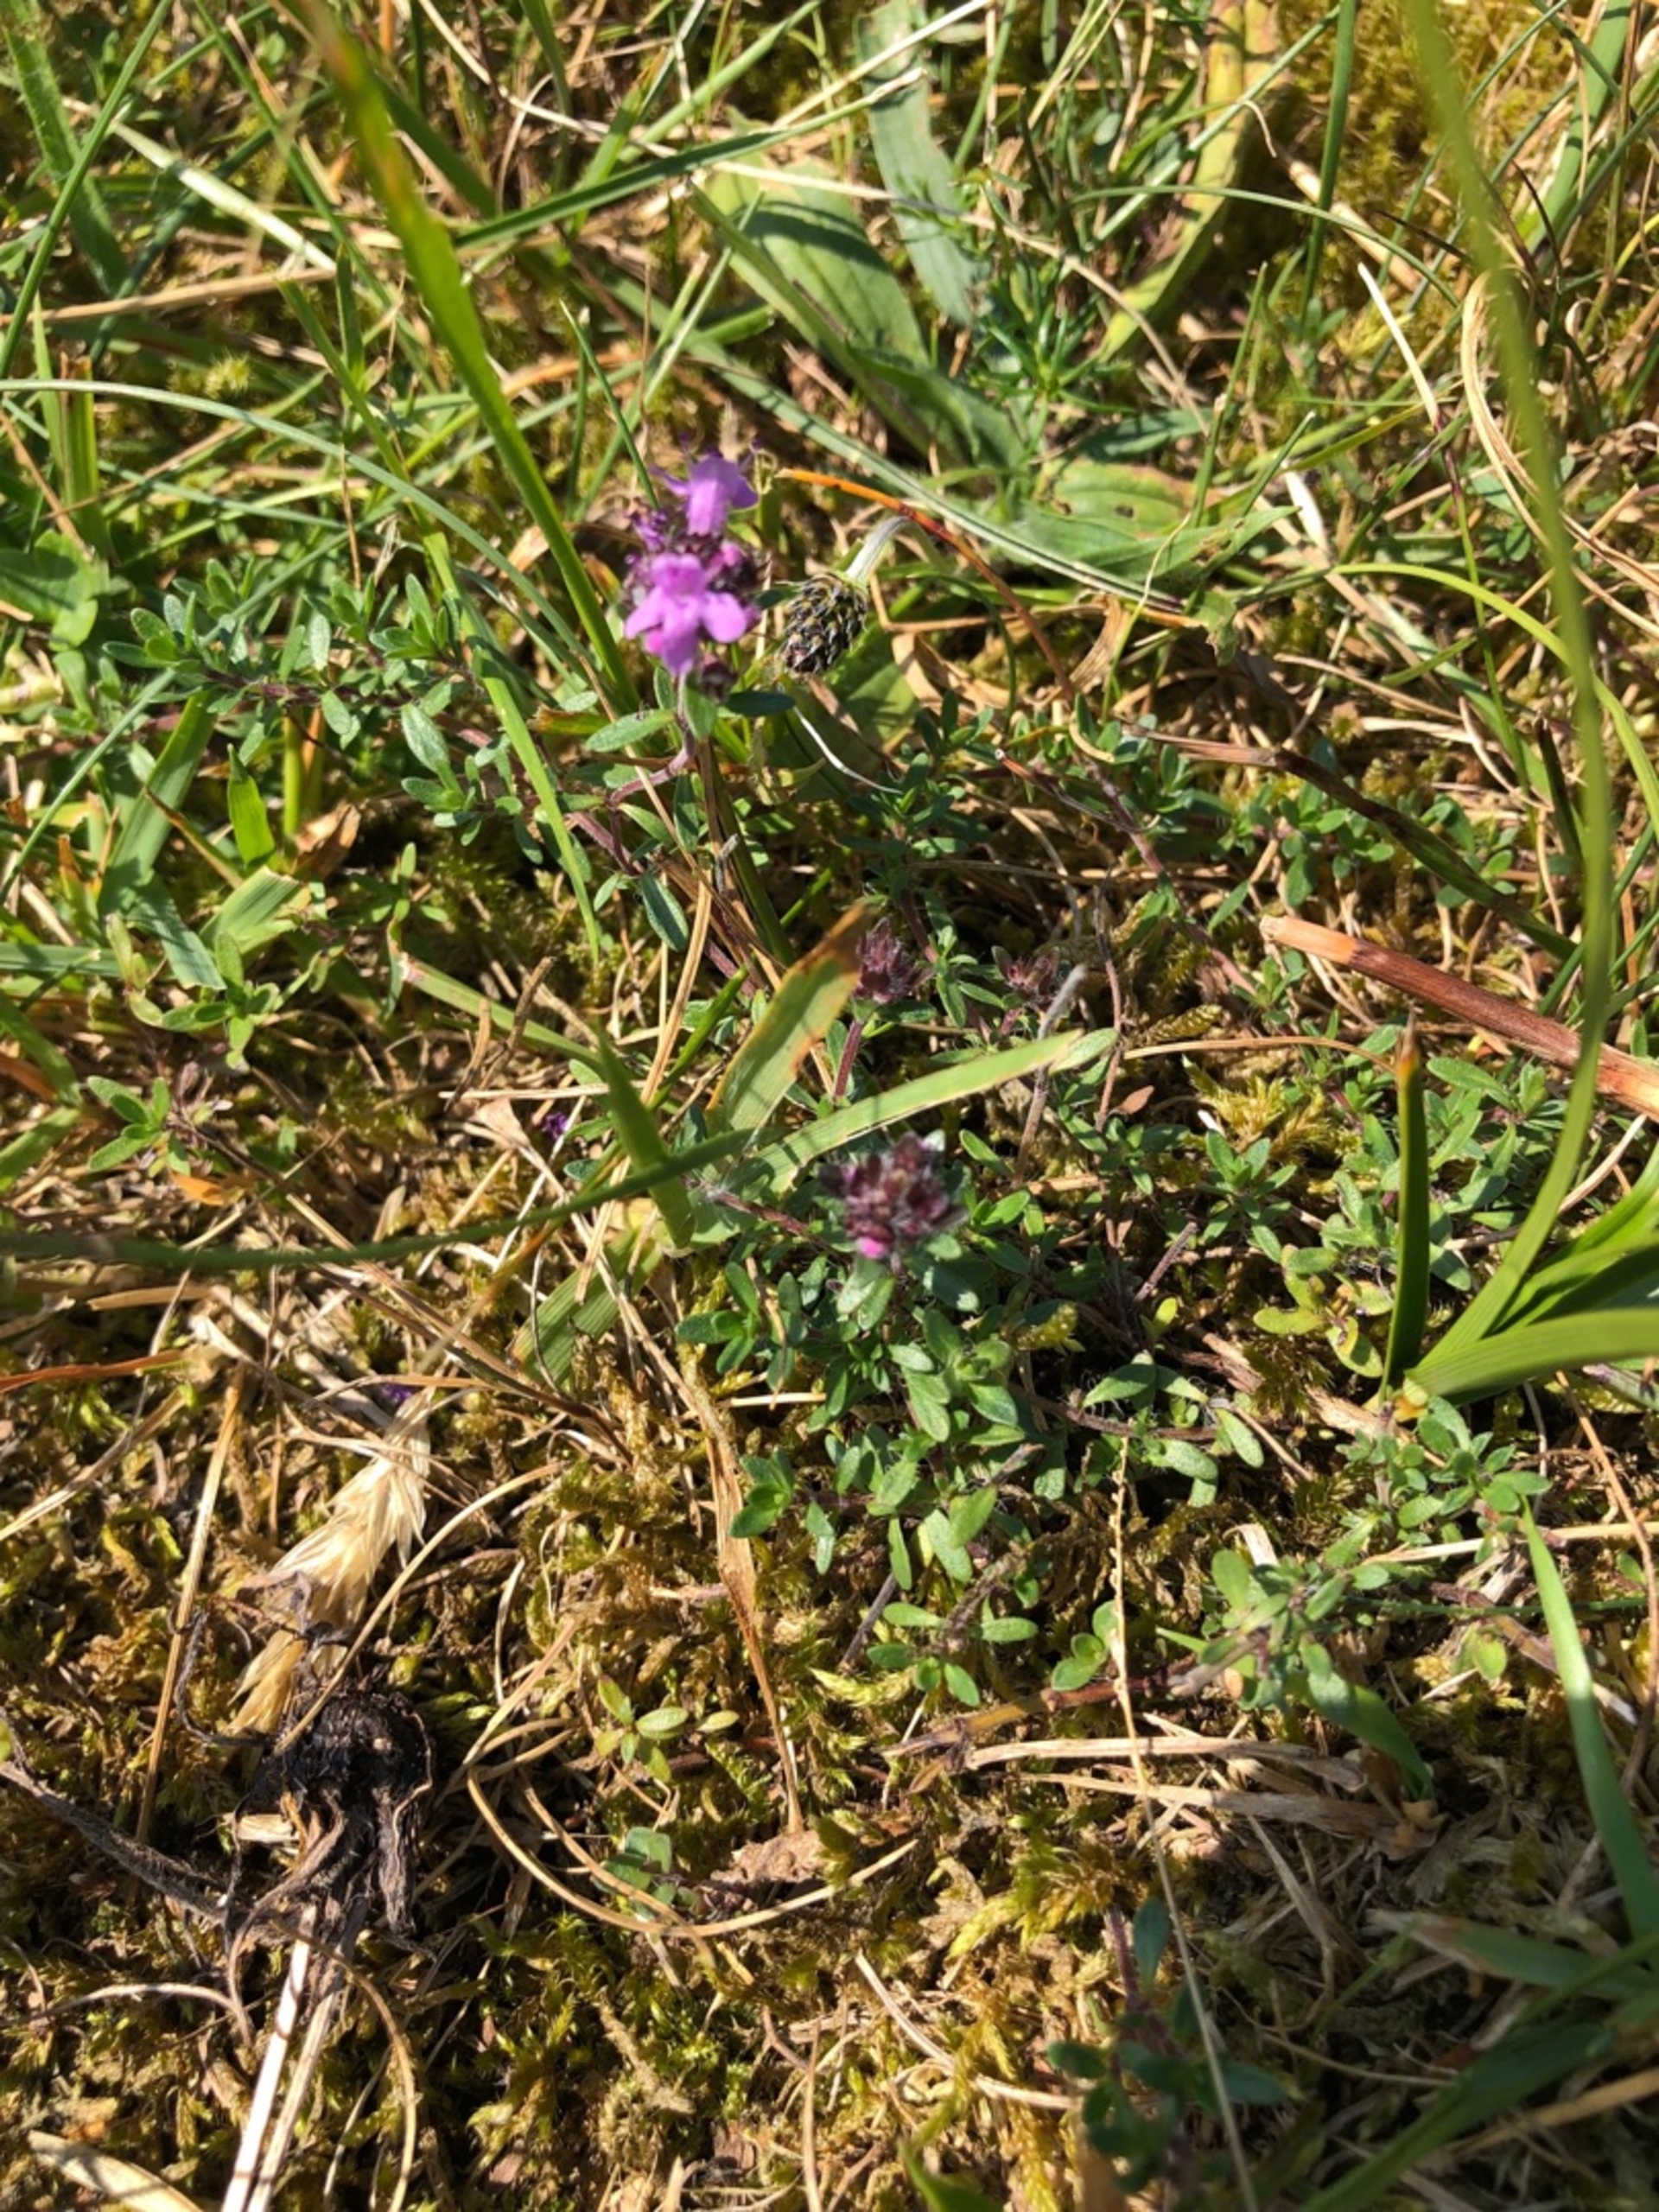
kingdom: Plantae
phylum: Tracheophyta
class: Magnoliopsida
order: Lamiales
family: Lamiaceae
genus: Thymus
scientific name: Thymus serpyllum
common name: Smalbladet timian
